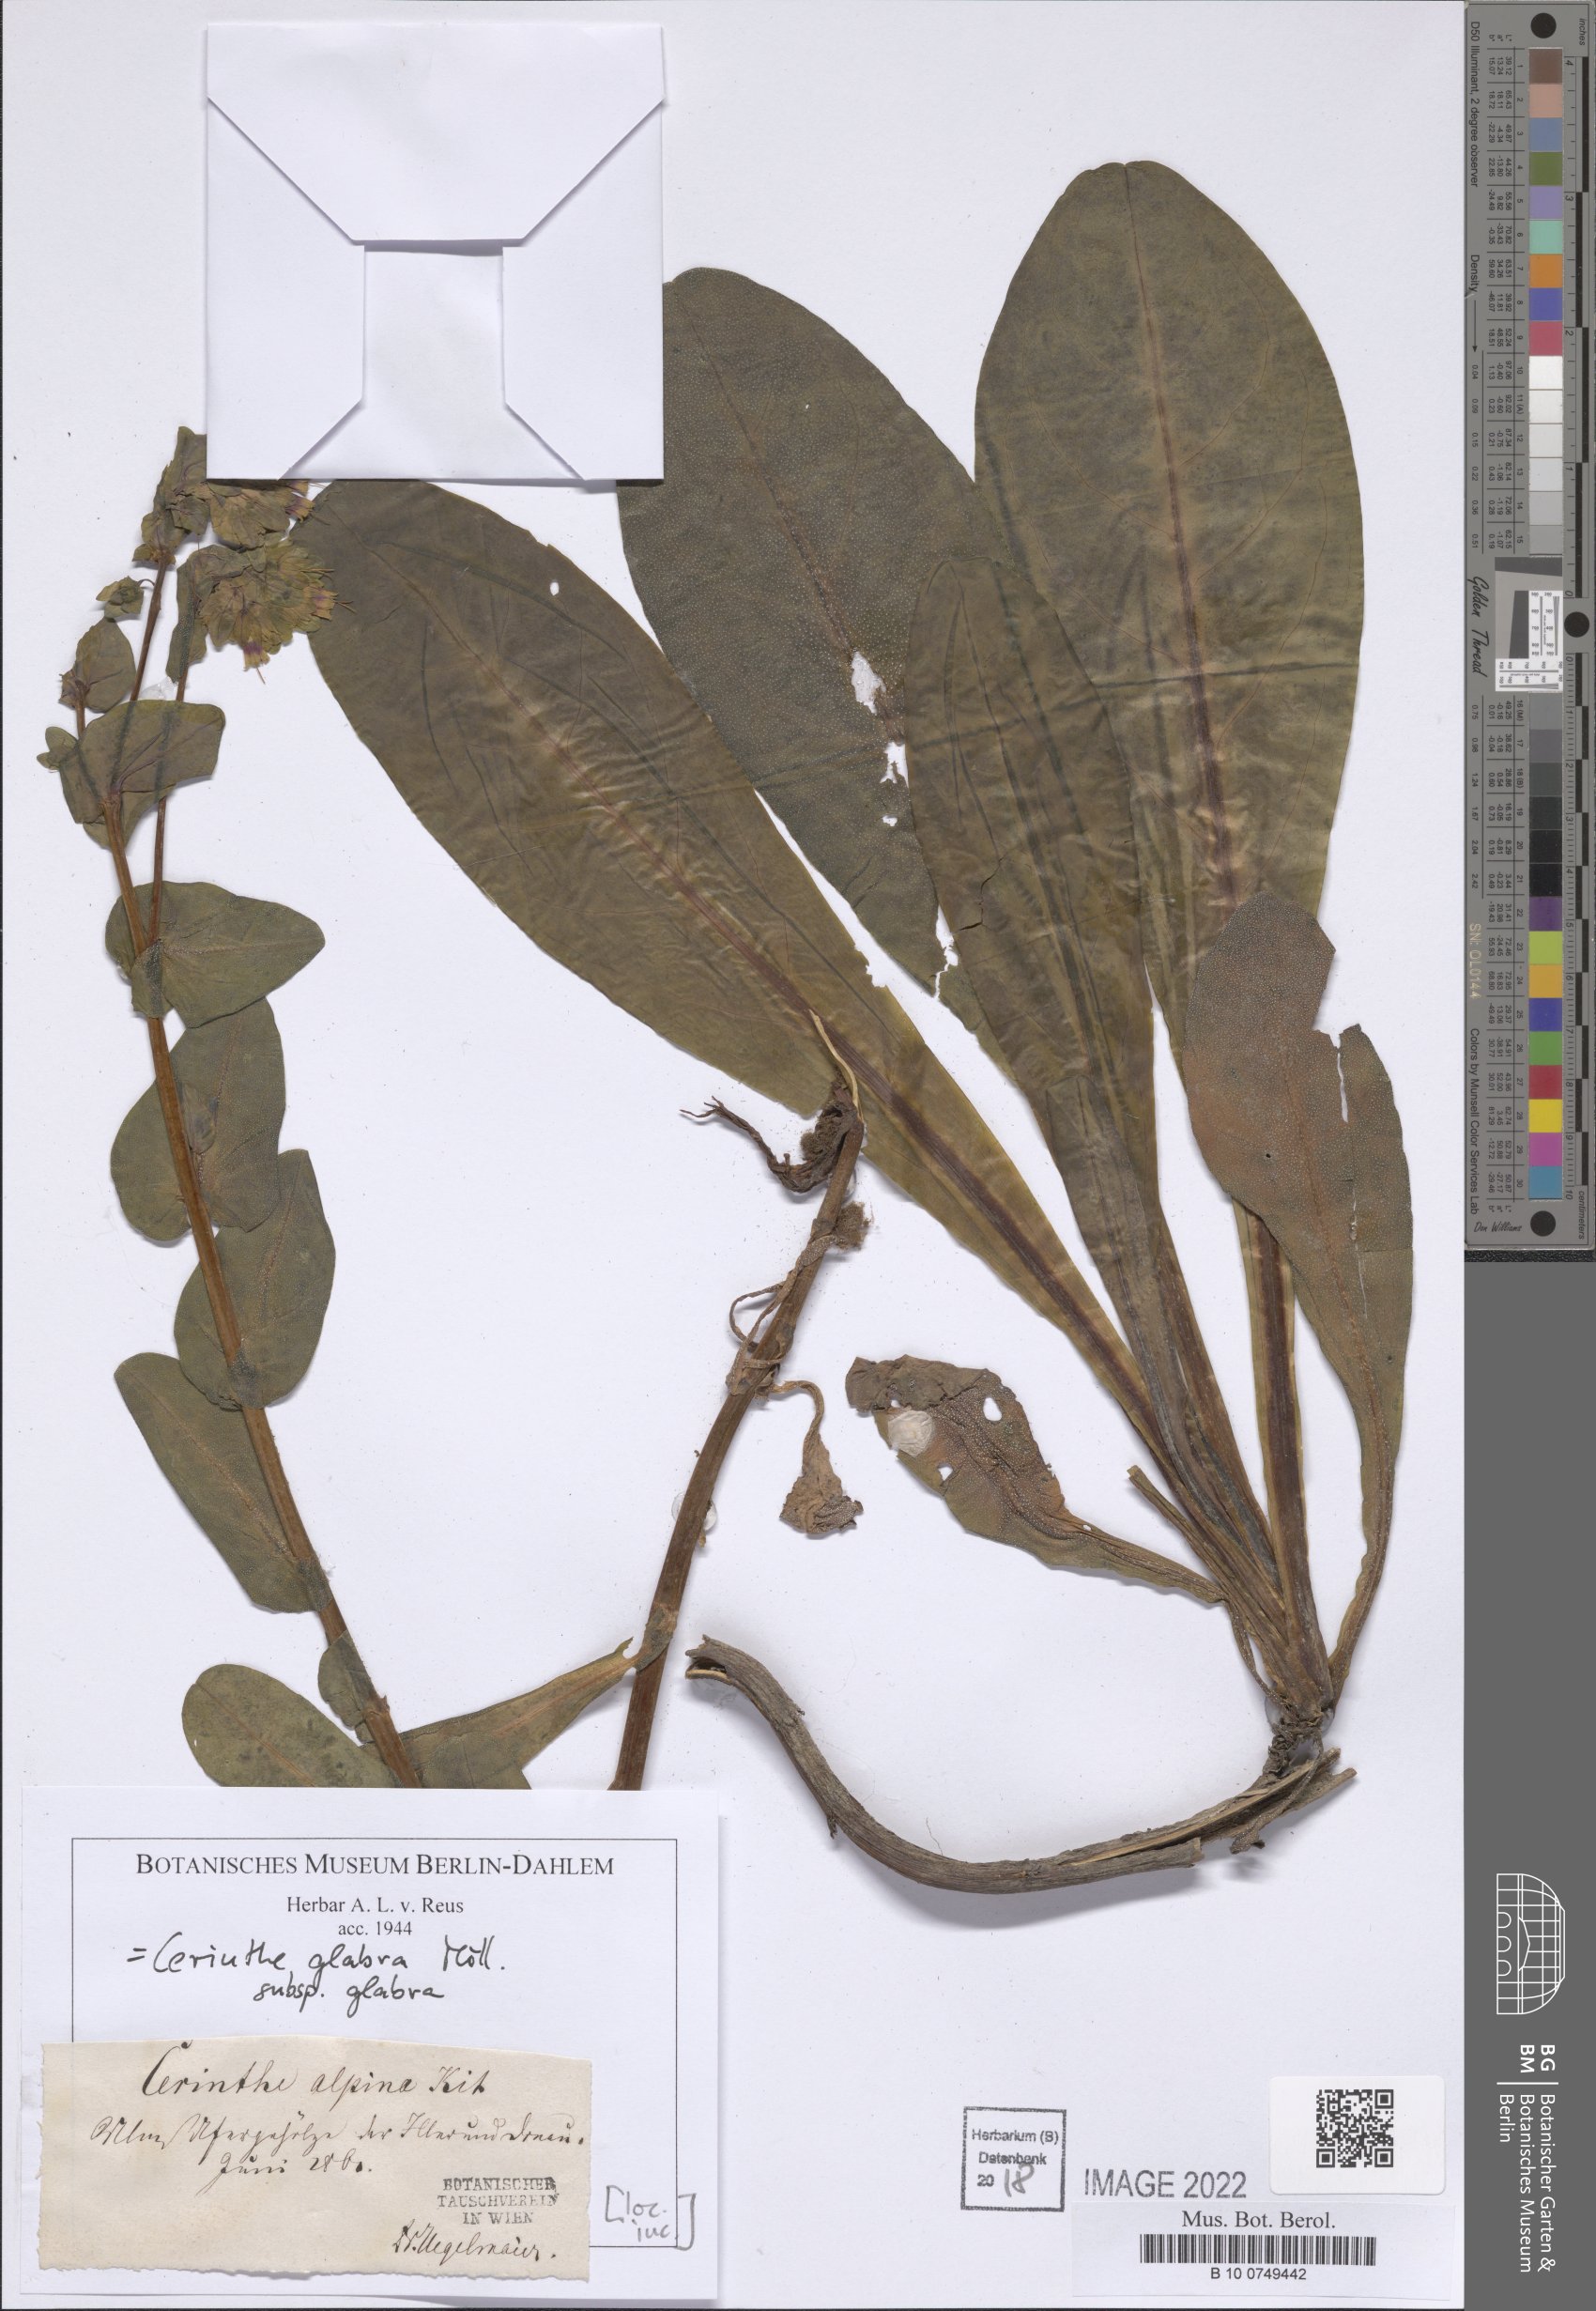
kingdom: Plantae
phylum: Tracheophyta
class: Magnoliopsida
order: Boraginales
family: Boraginaceae
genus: Cerinthe
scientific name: Cerinthe glabra
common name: Smooth honeywort
